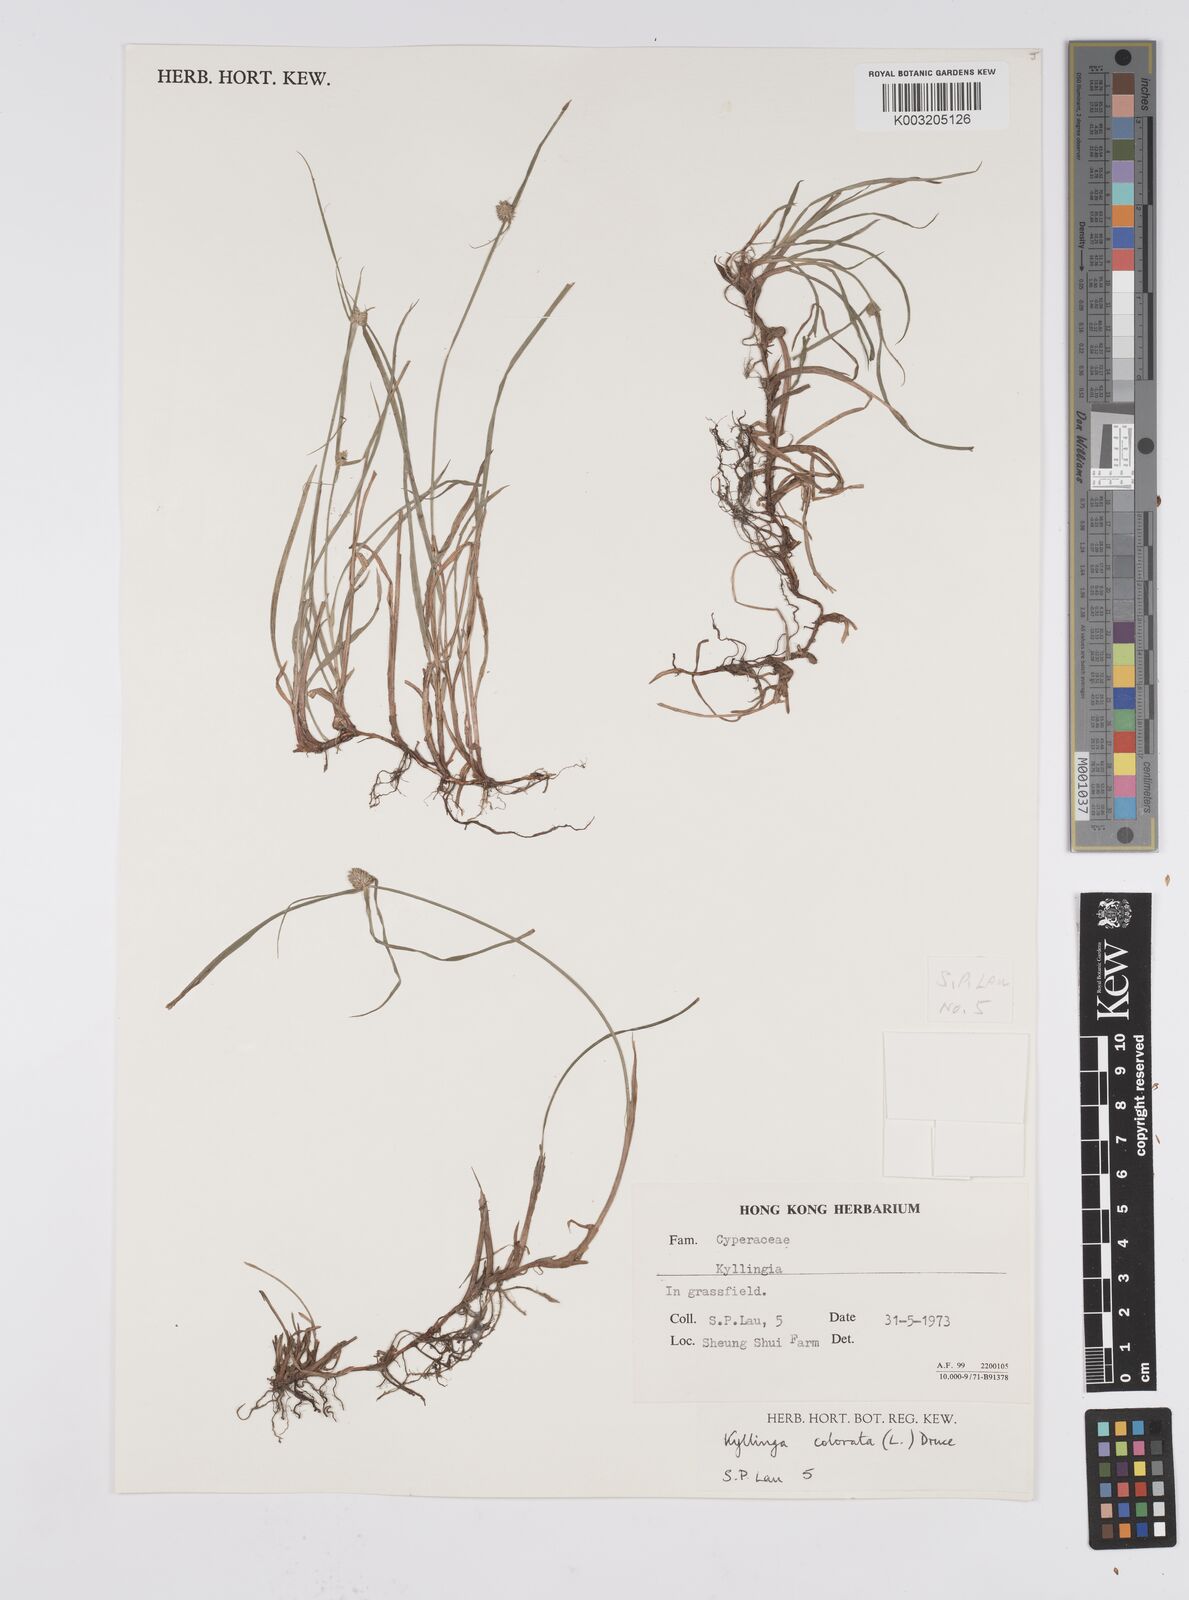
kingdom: Plantae
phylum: Tracheophyta
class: Liliopsida
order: Poales
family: Cyperaceae
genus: Cyperus
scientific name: Cyperus brevifolius
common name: Globe kyllinga
